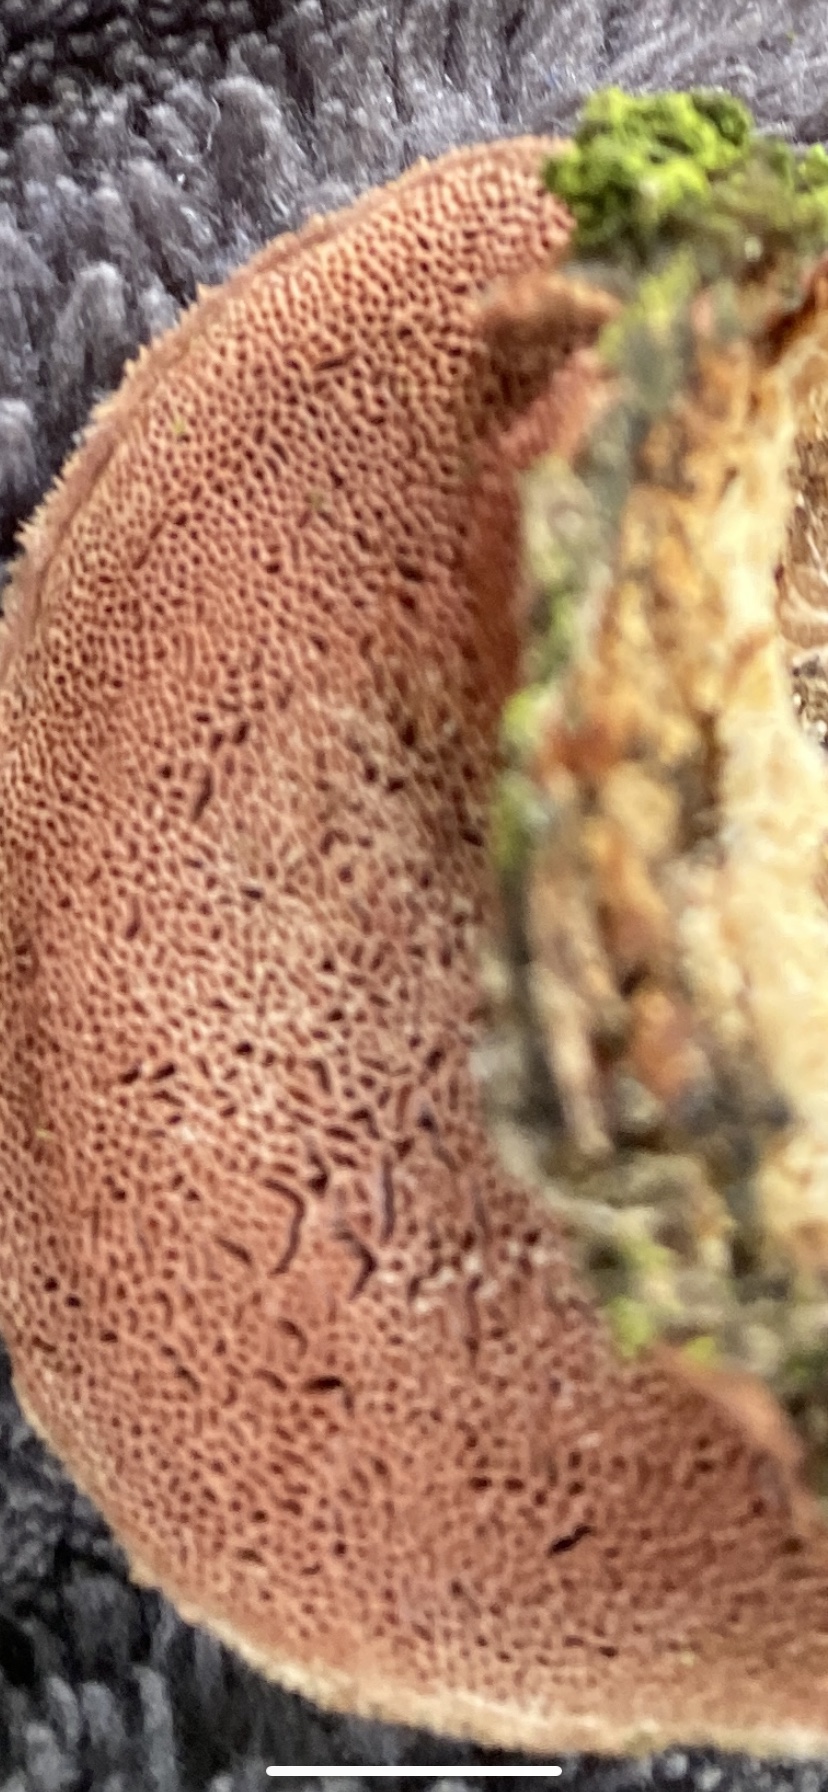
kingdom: Fungi
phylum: Basidiomycota
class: Agaricomycetes
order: Polyporales
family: Phanerochaetaceae
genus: Hapalopilus
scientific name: Hapalopilus rutilans
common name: rødlig okkerporesvamp
